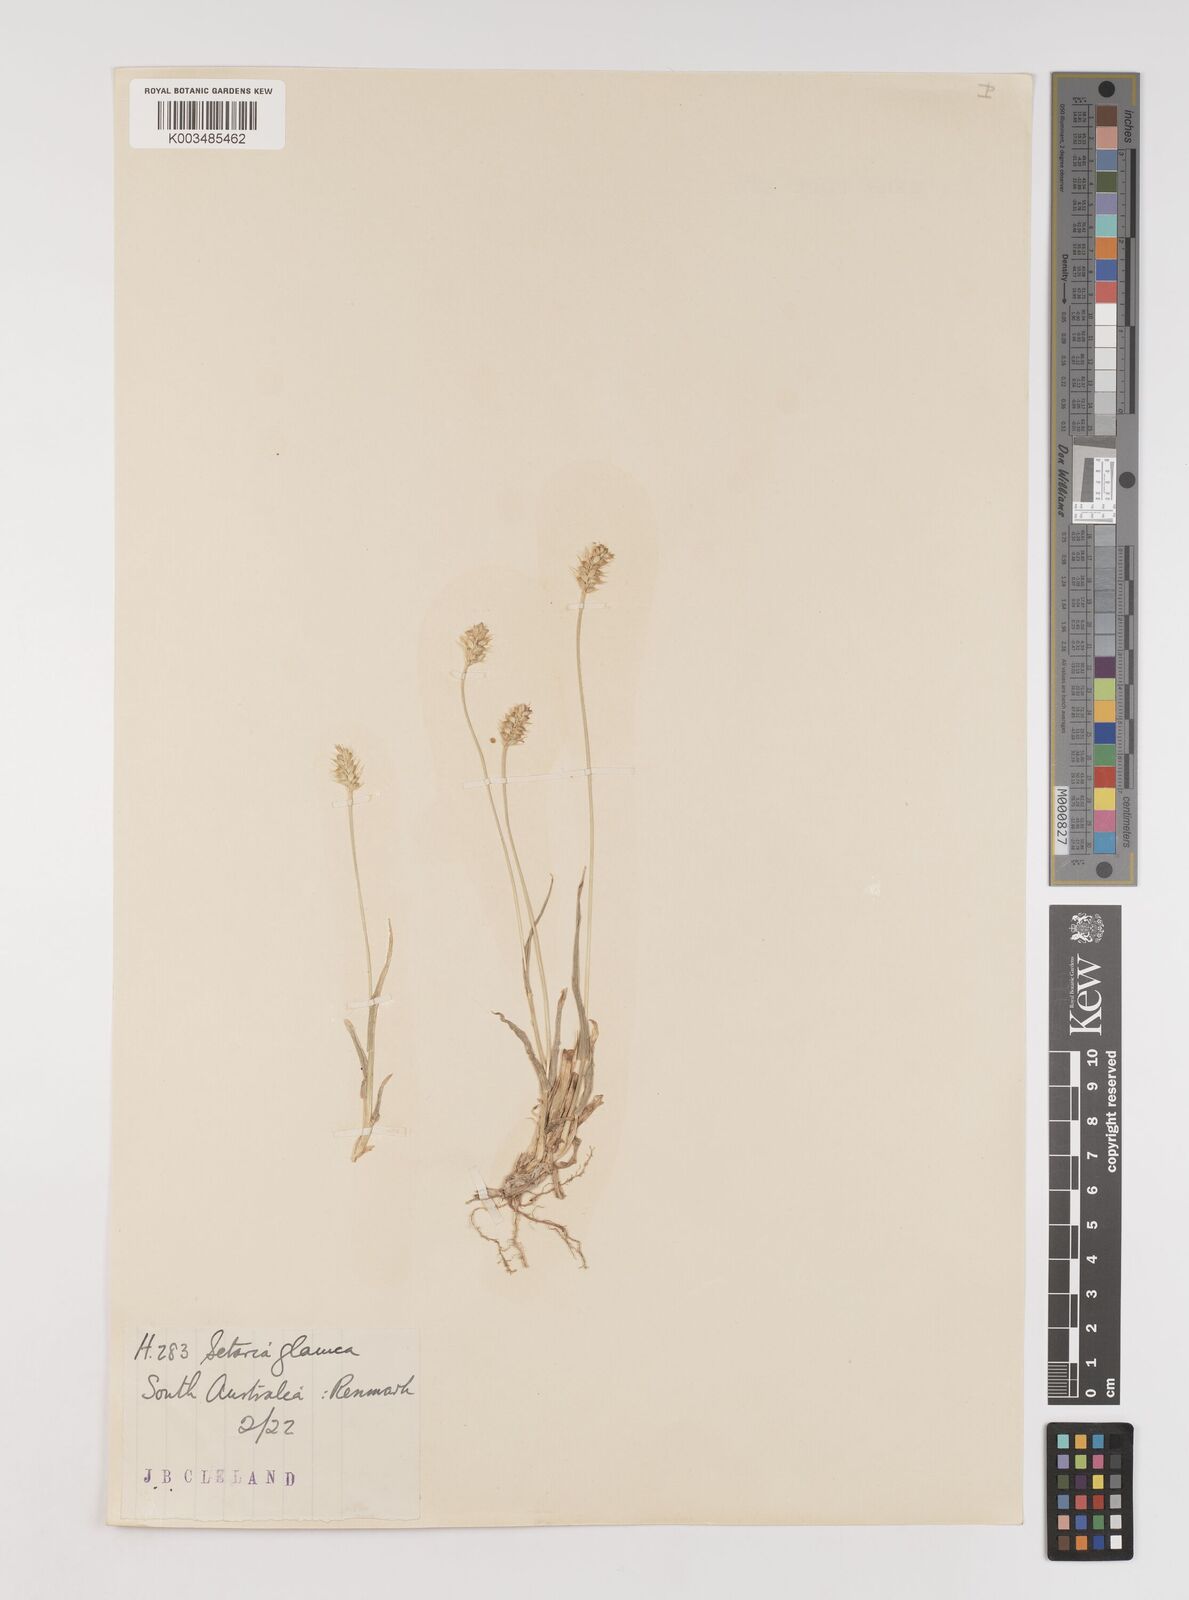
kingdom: Plantae
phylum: Tracheophyta
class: Liliopsida
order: Poales
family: Poaceae
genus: Setaria
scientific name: Setaria pumila
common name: Yellow bristle-grass
